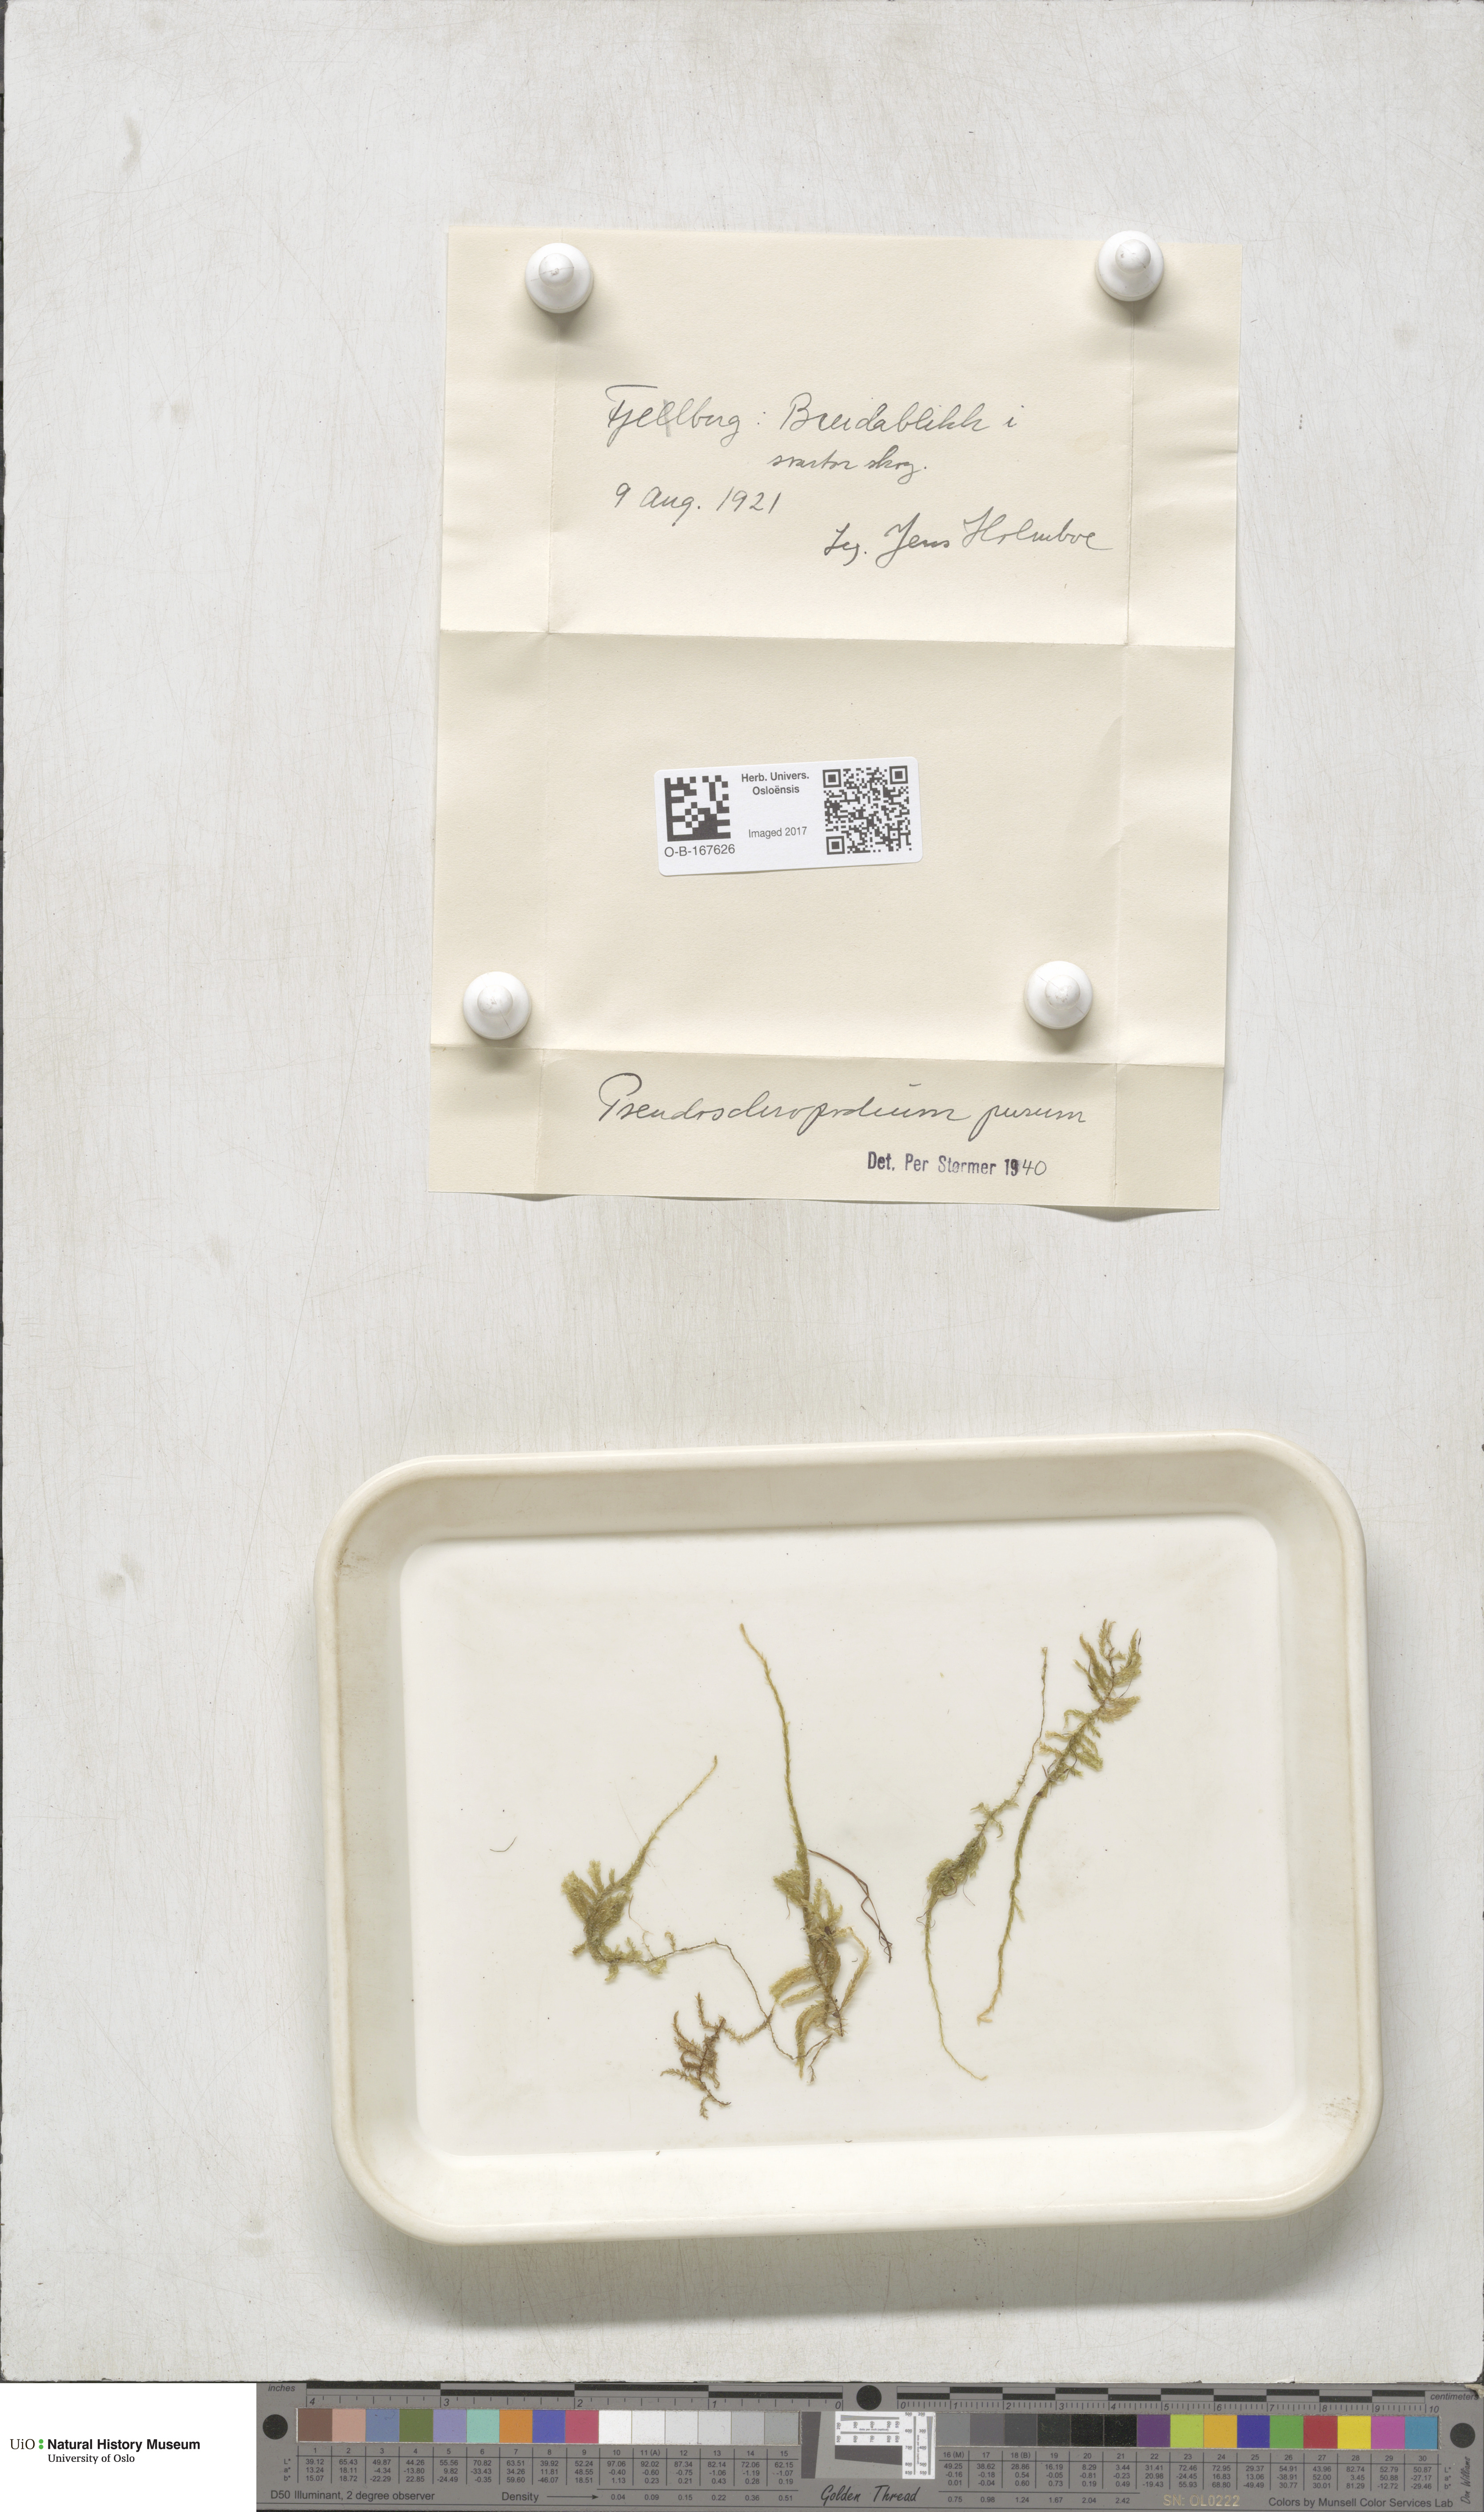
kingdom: Plantae
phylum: Bryophyta
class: Bryopsida
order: Hypnales
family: Brachytheciaceae
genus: Pseudoscleropodium
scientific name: Pseudoscleropodium purum
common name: Neat feather-moss
